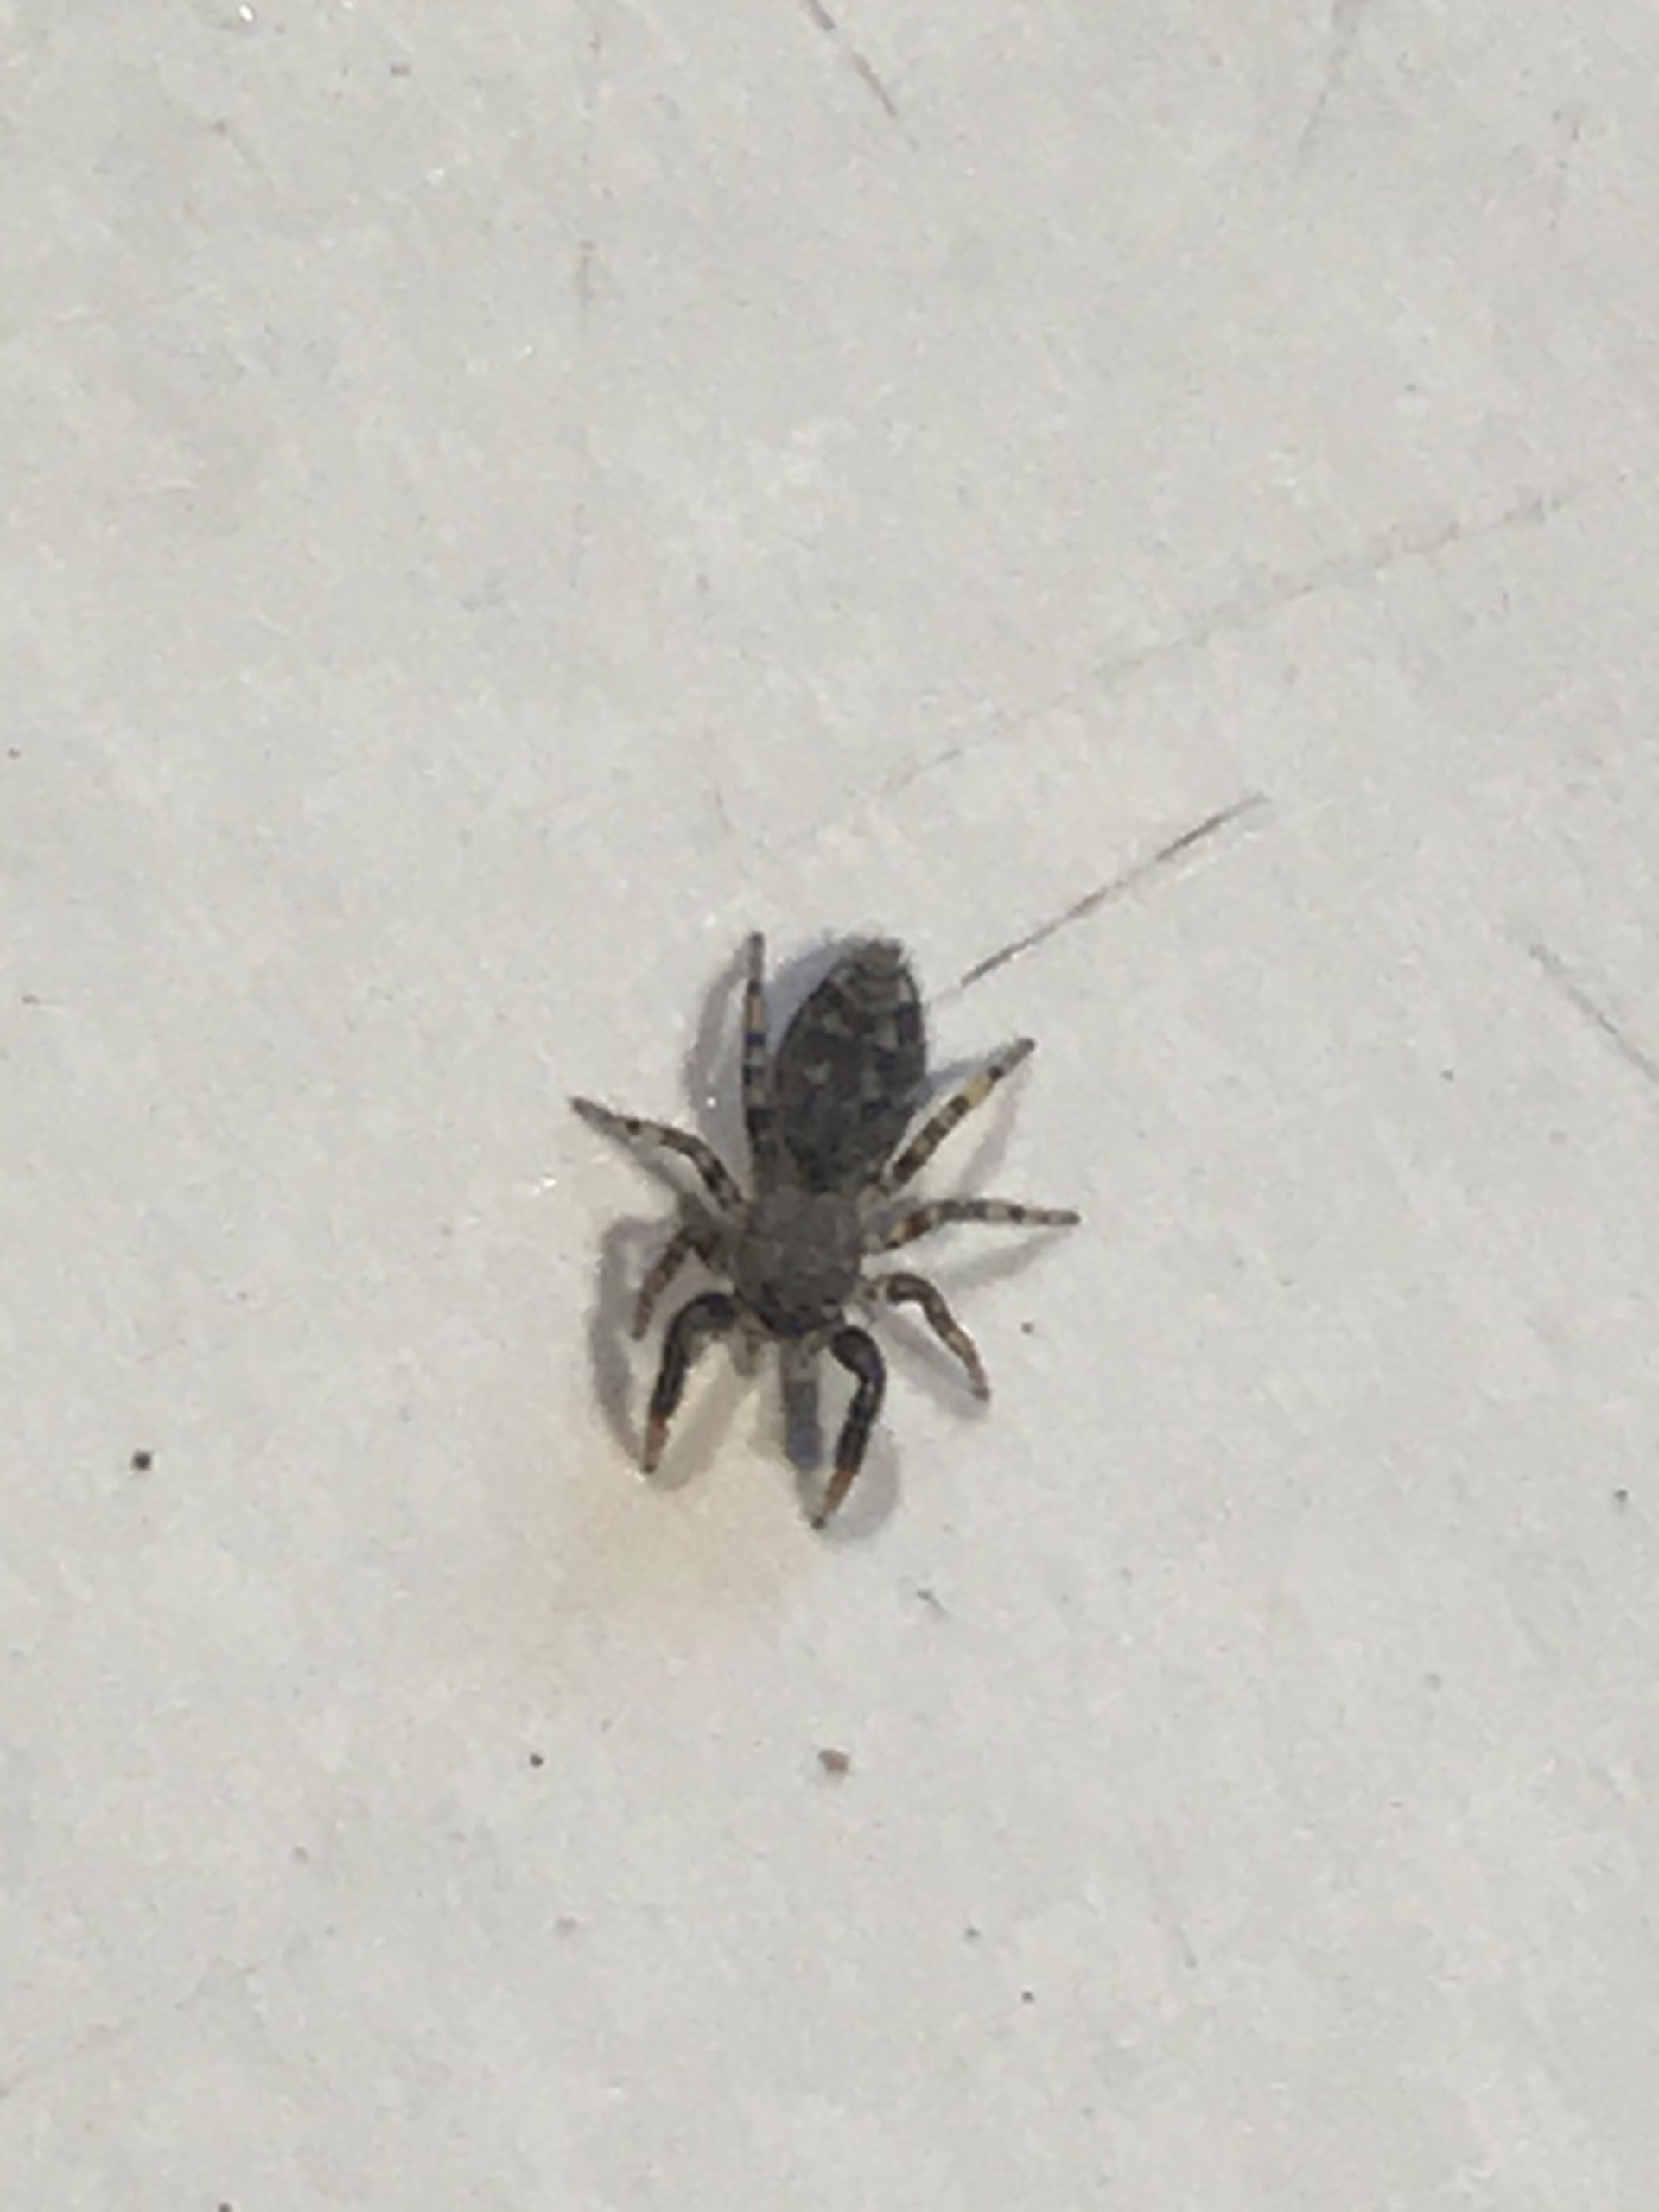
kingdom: Animalia
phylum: Arthropoda
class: Arachnida
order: Araneae
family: Salticidae
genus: Marpissa
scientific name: Marpissa muscosa
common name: Stor springedderkop
